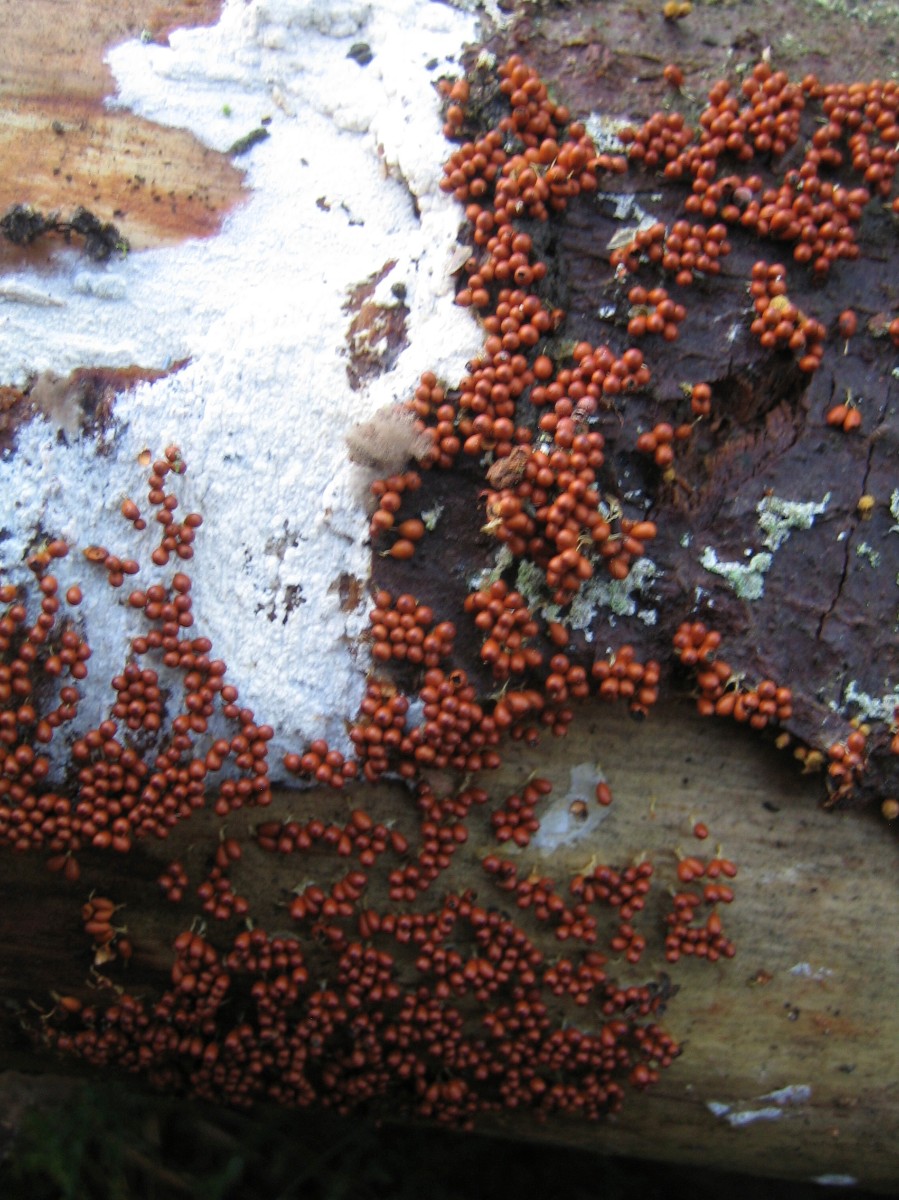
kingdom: Protozoa
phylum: Mycetozoa
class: Myxomycetes
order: Physarales
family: Physaraceae
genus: Leocarpus
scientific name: Leocarpus fragilis
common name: poleret glatfrø
